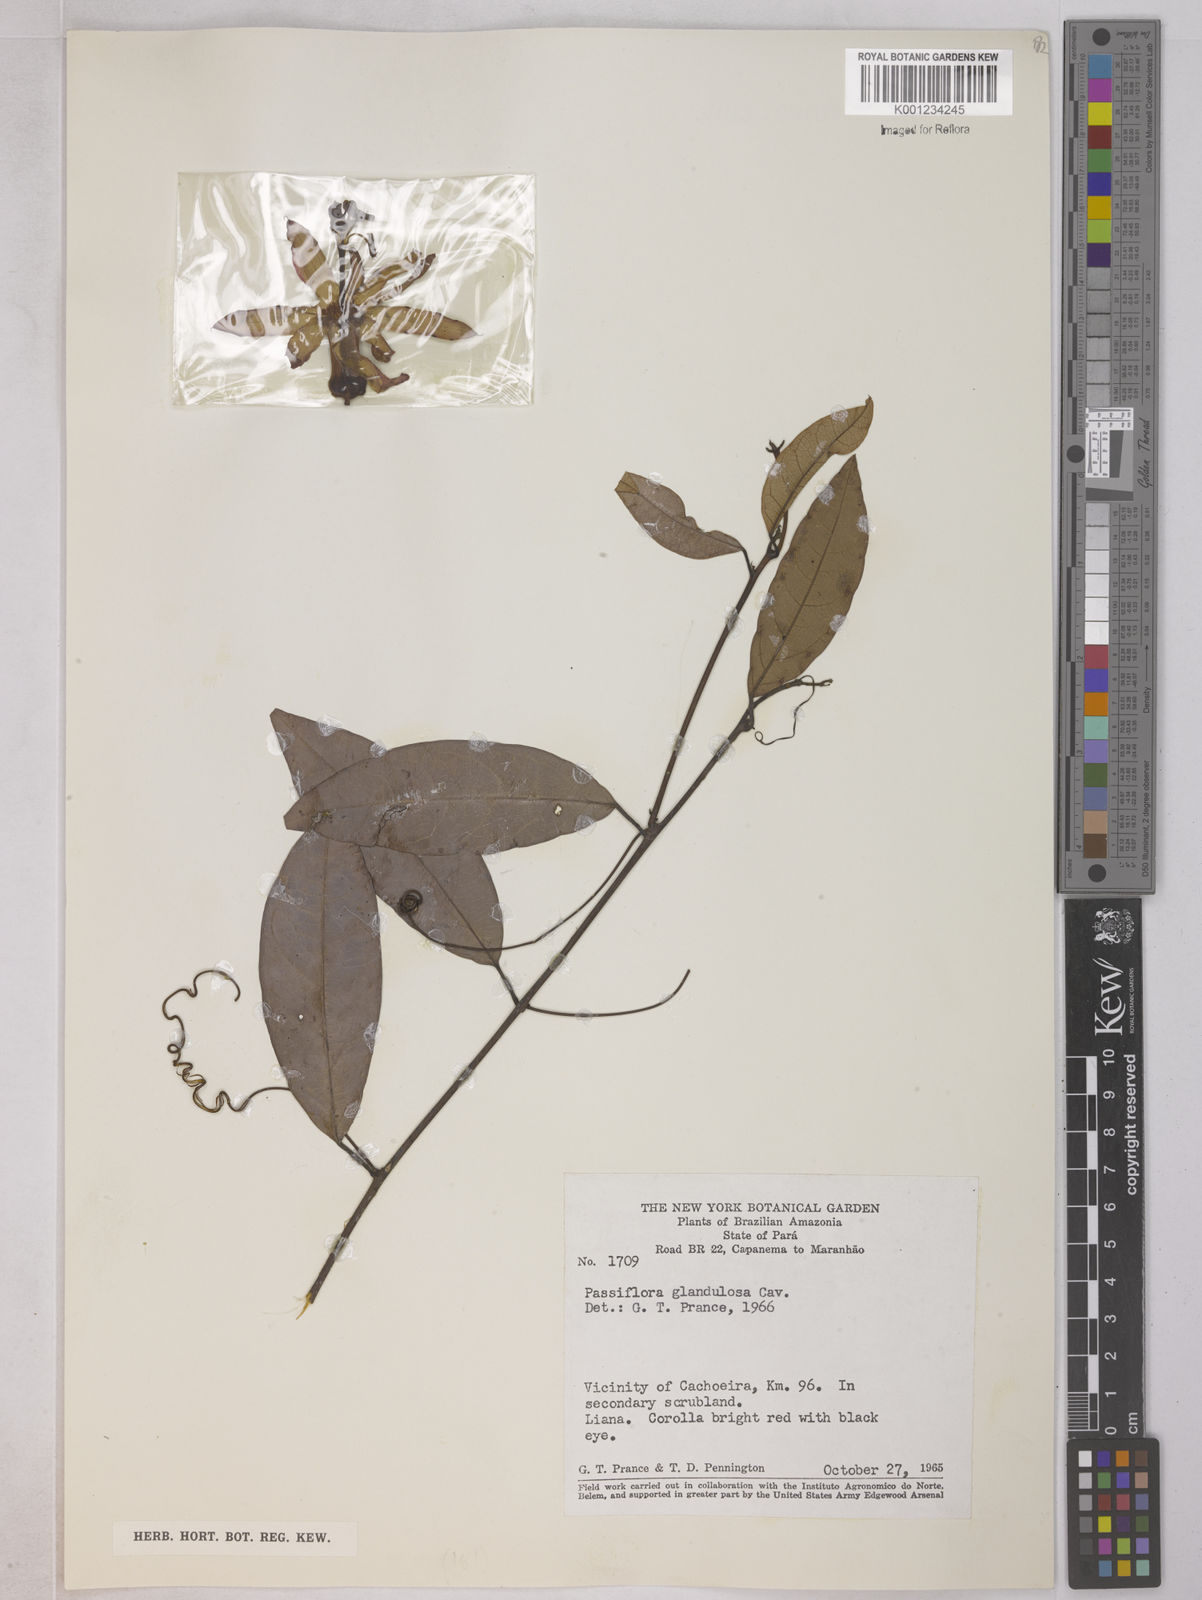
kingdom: Plantae
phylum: Tracheophyta
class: Magnoliopsida
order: Malpighiales
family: Passifloraceae
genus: Passiflora
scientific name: Passiflora glandulosa
